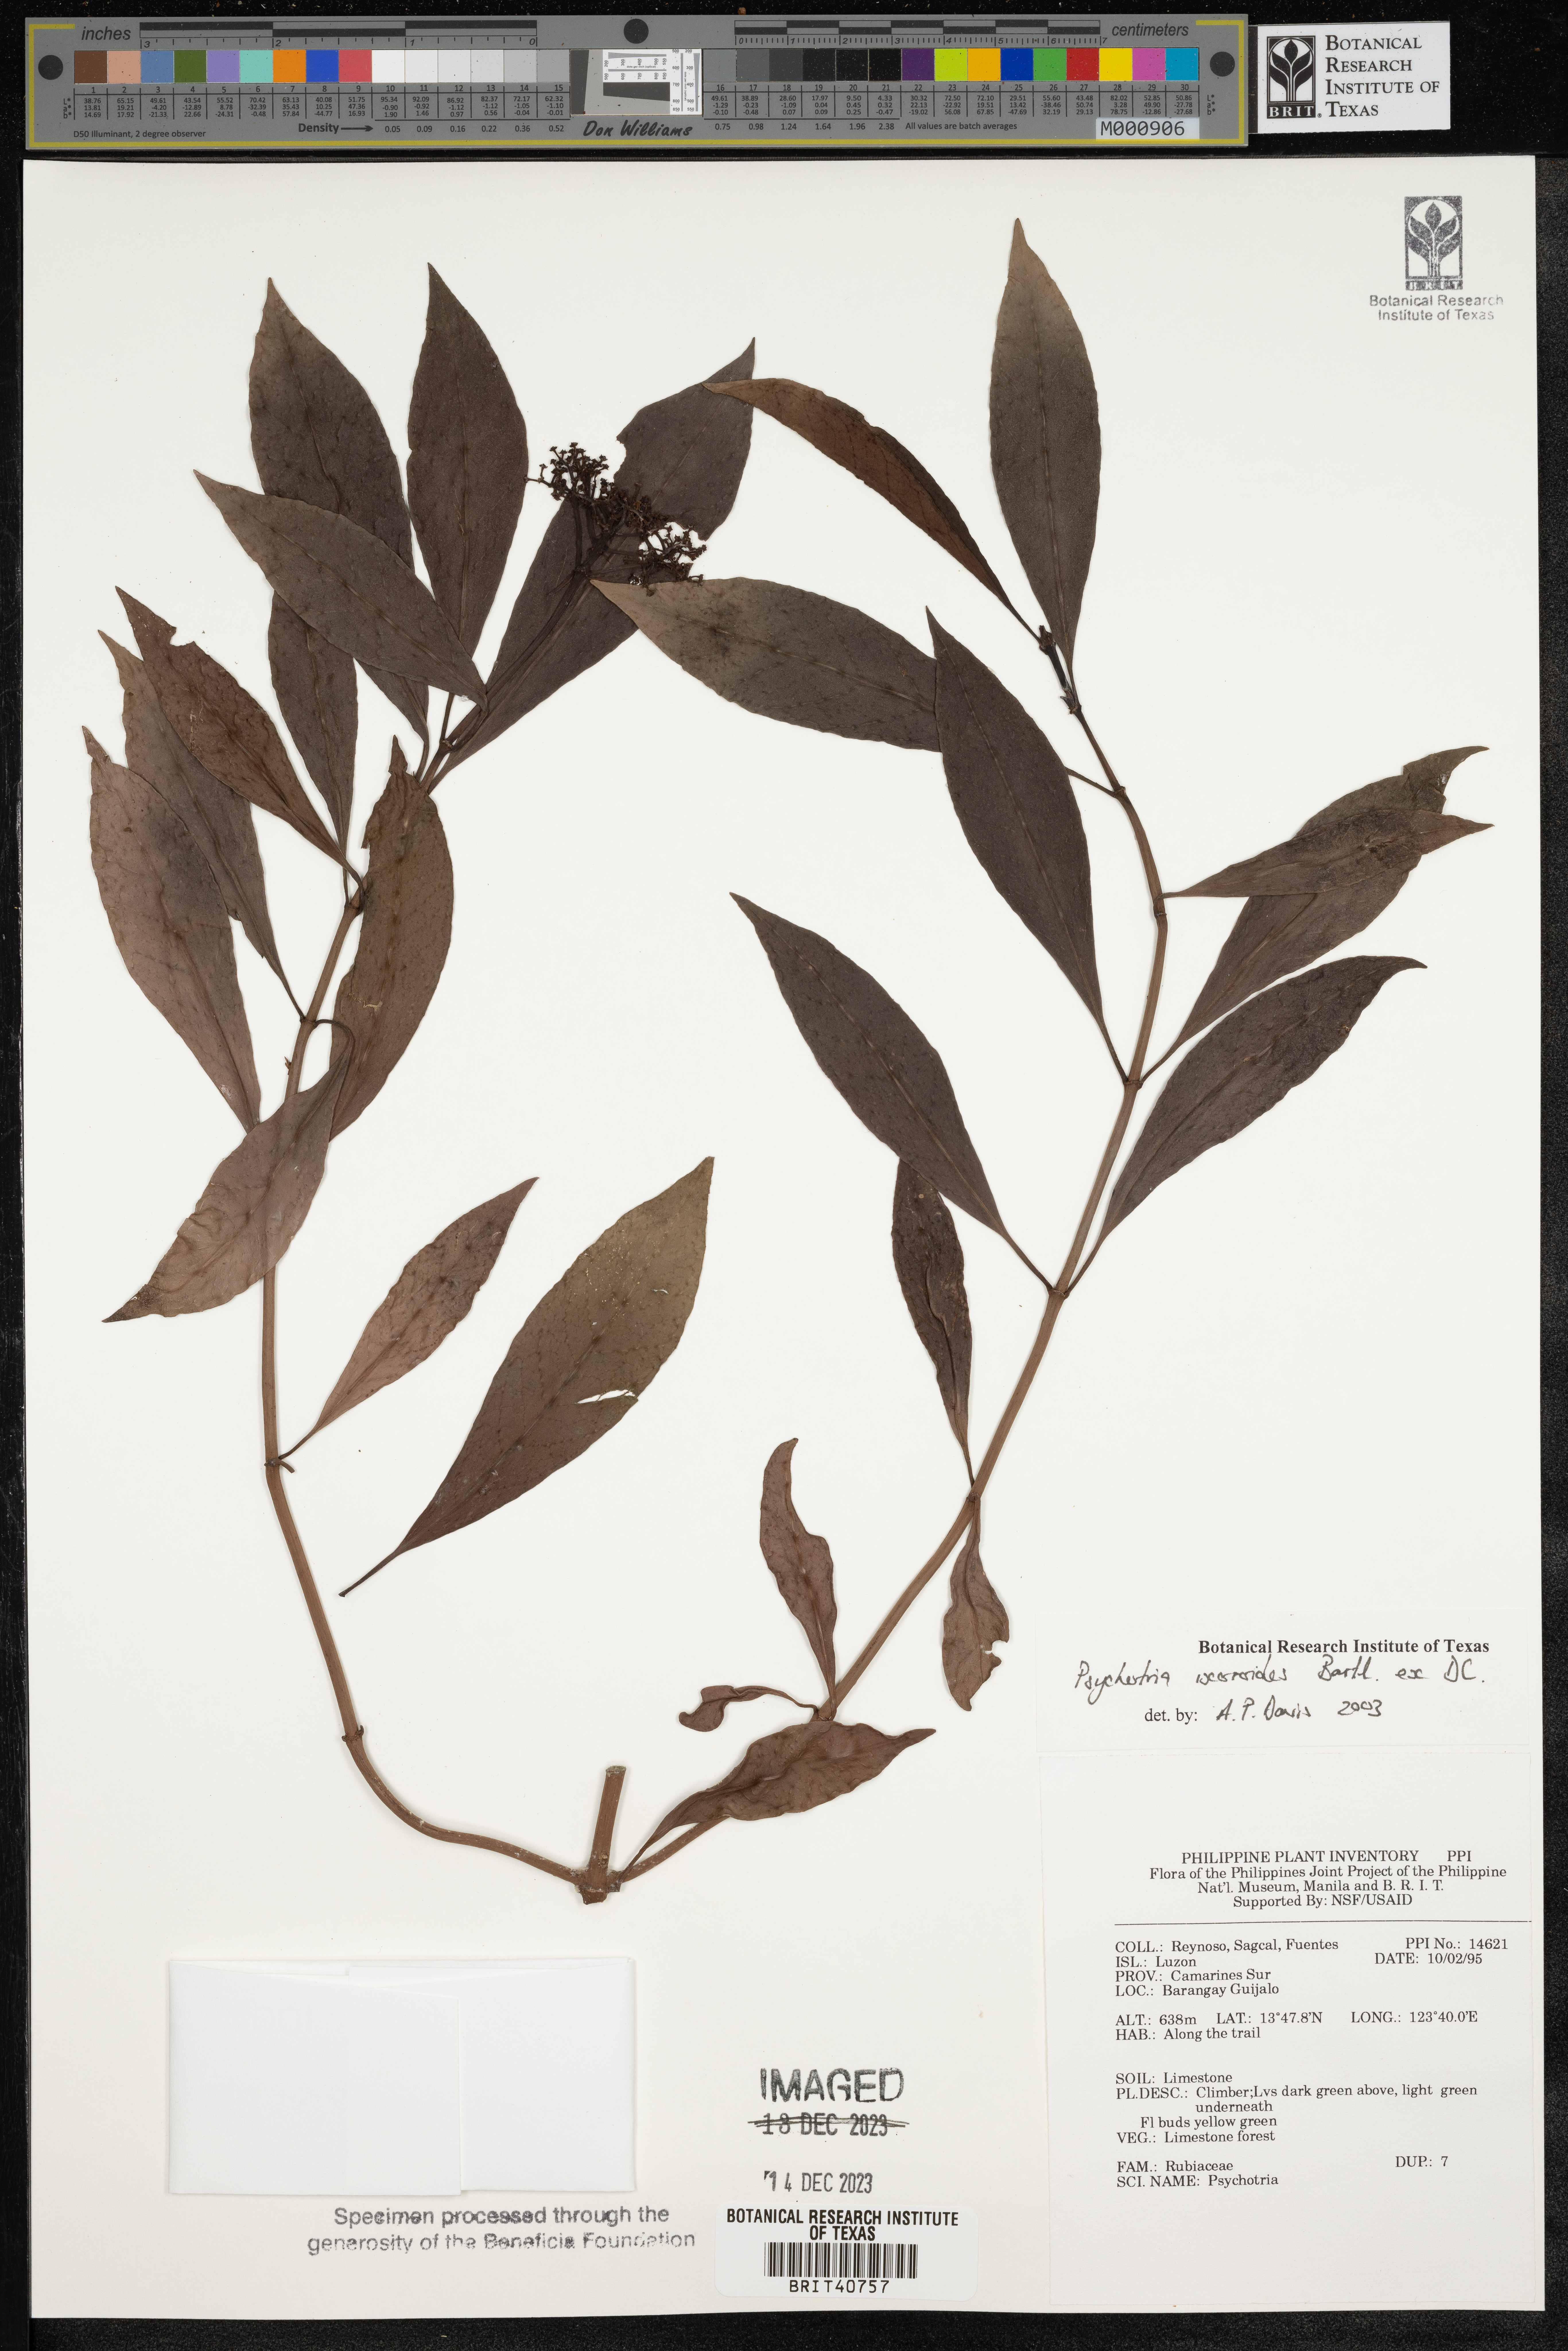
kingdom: Plantae
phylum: Tracheophyta
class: Magnoliopsida
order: Gentianales
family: Rubiaceae
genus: Psychotria
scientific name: Psychotria ixoroides
